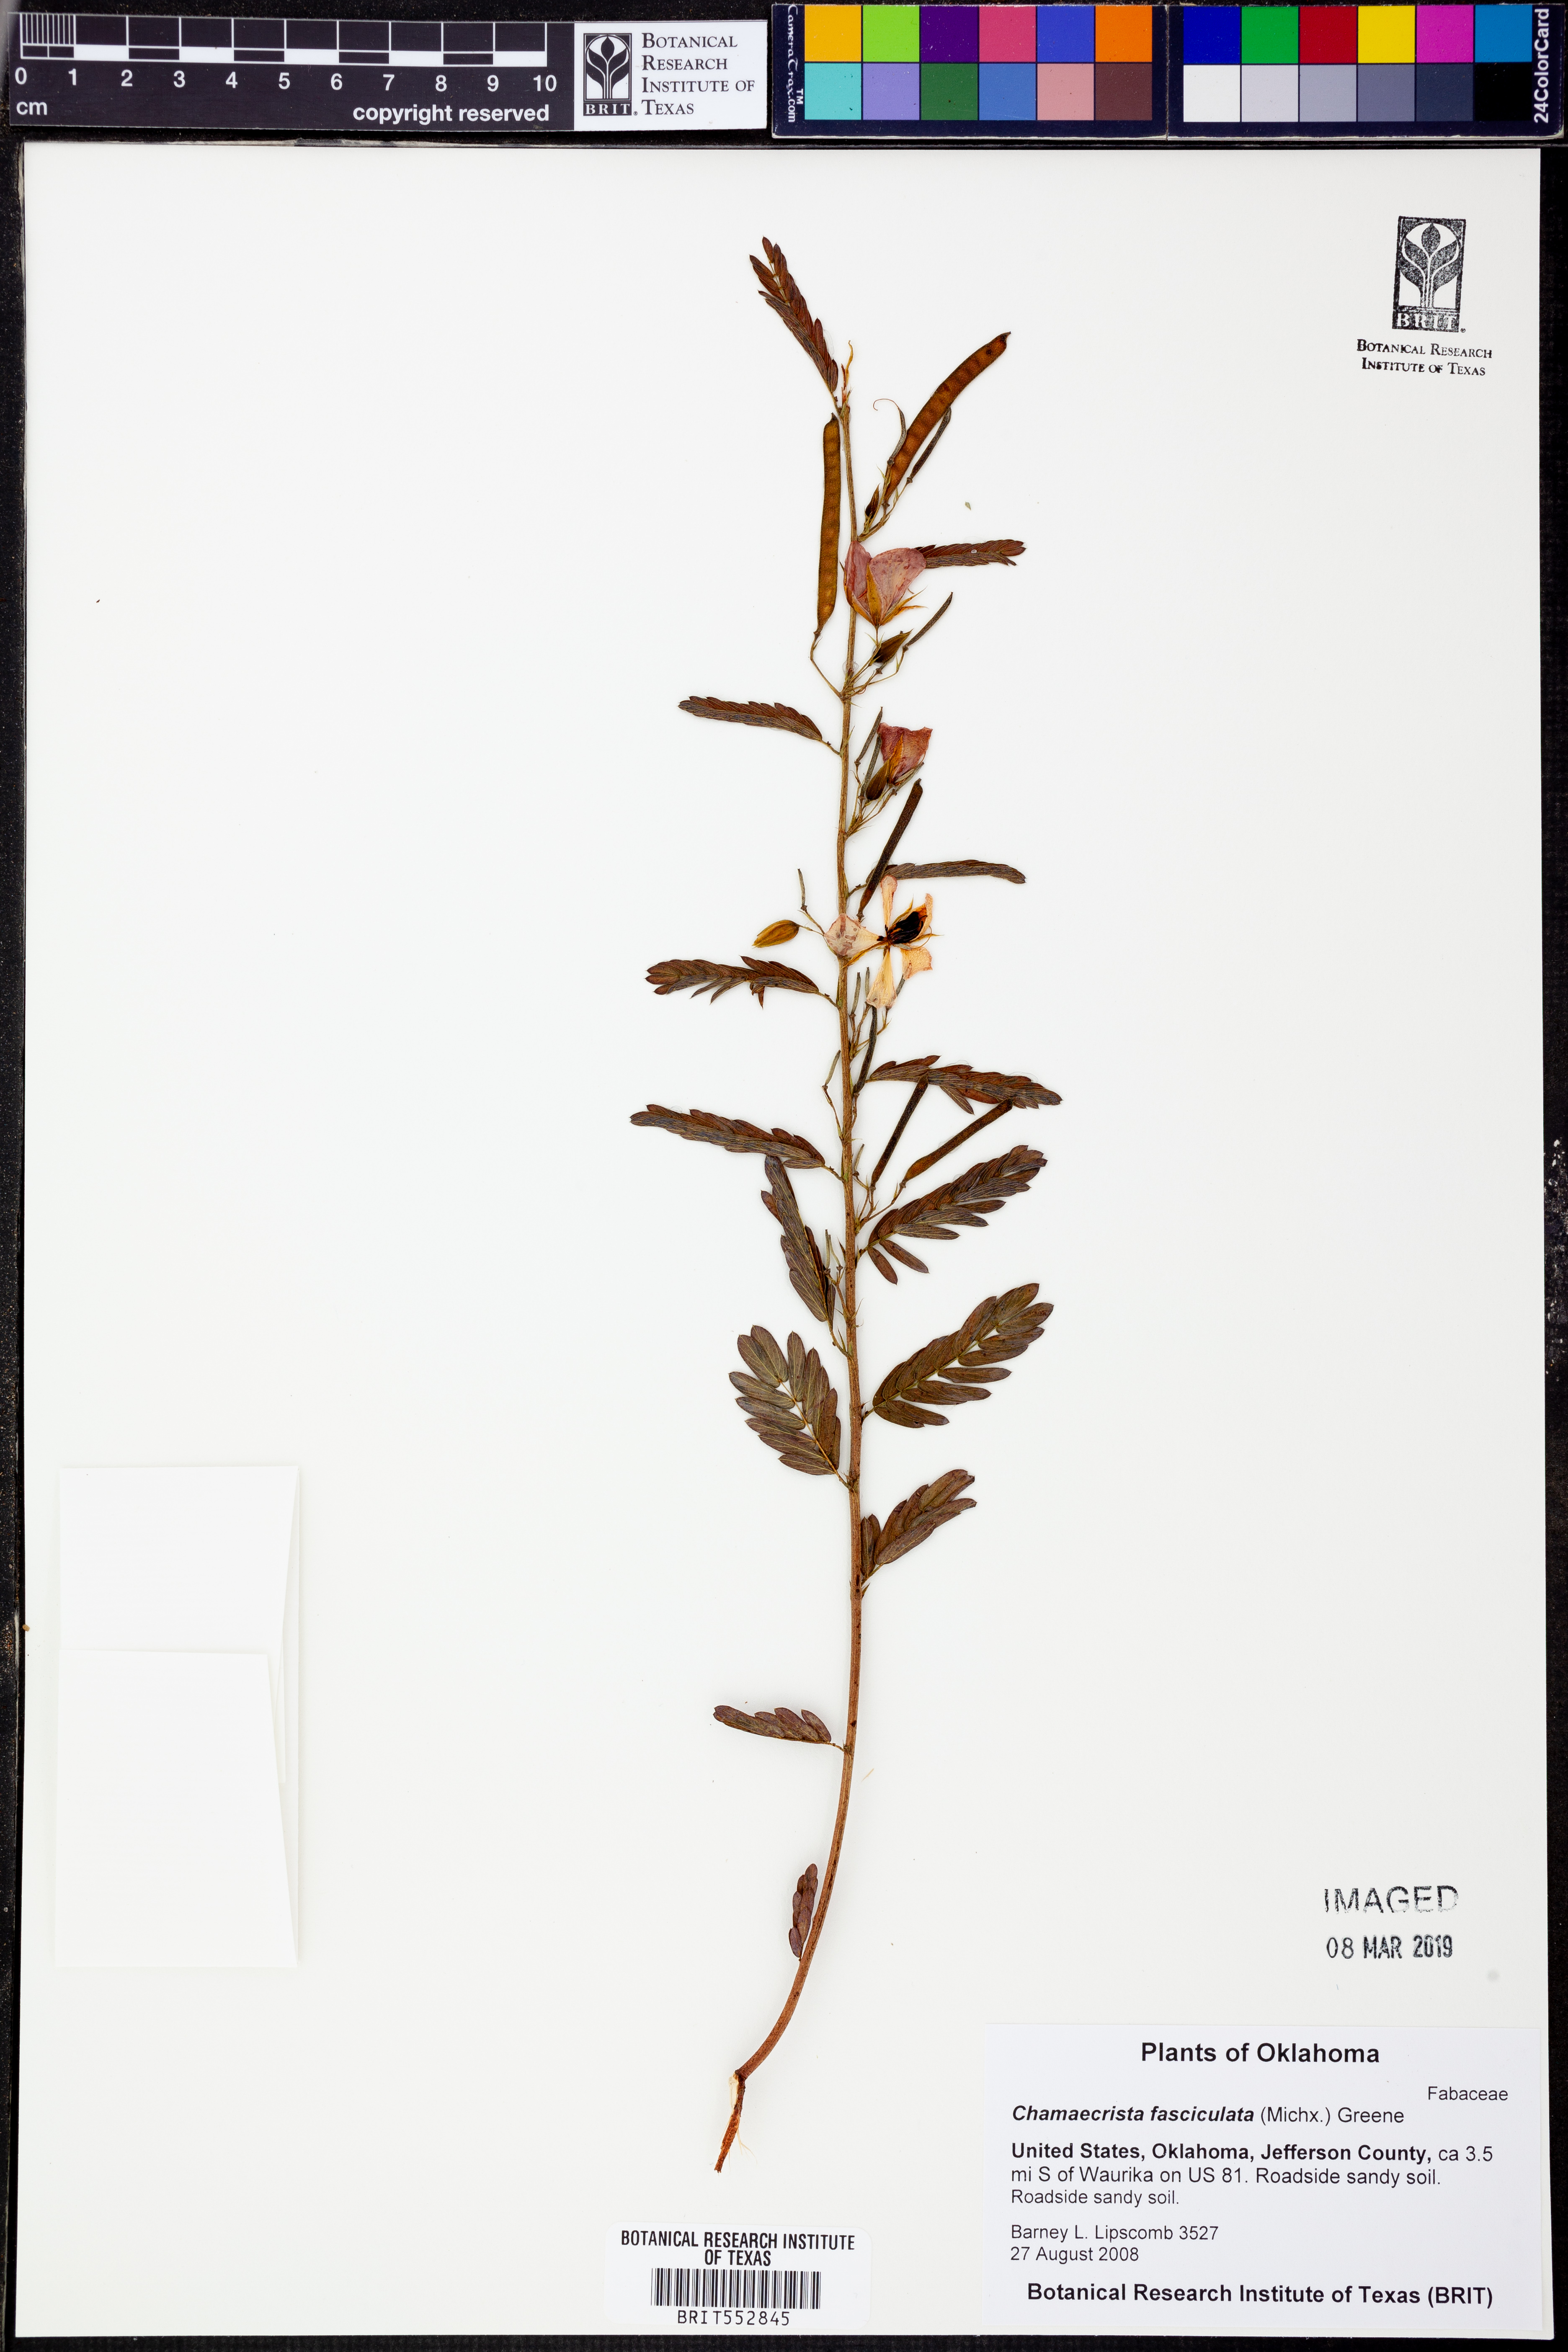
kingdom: Plantae
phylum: Tracheophyta
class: Magnoliopsida
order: Fabales
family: Fabaceae
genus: Chamaecrista
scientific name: Chamaecrista fasciculata
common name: Golden cassia
